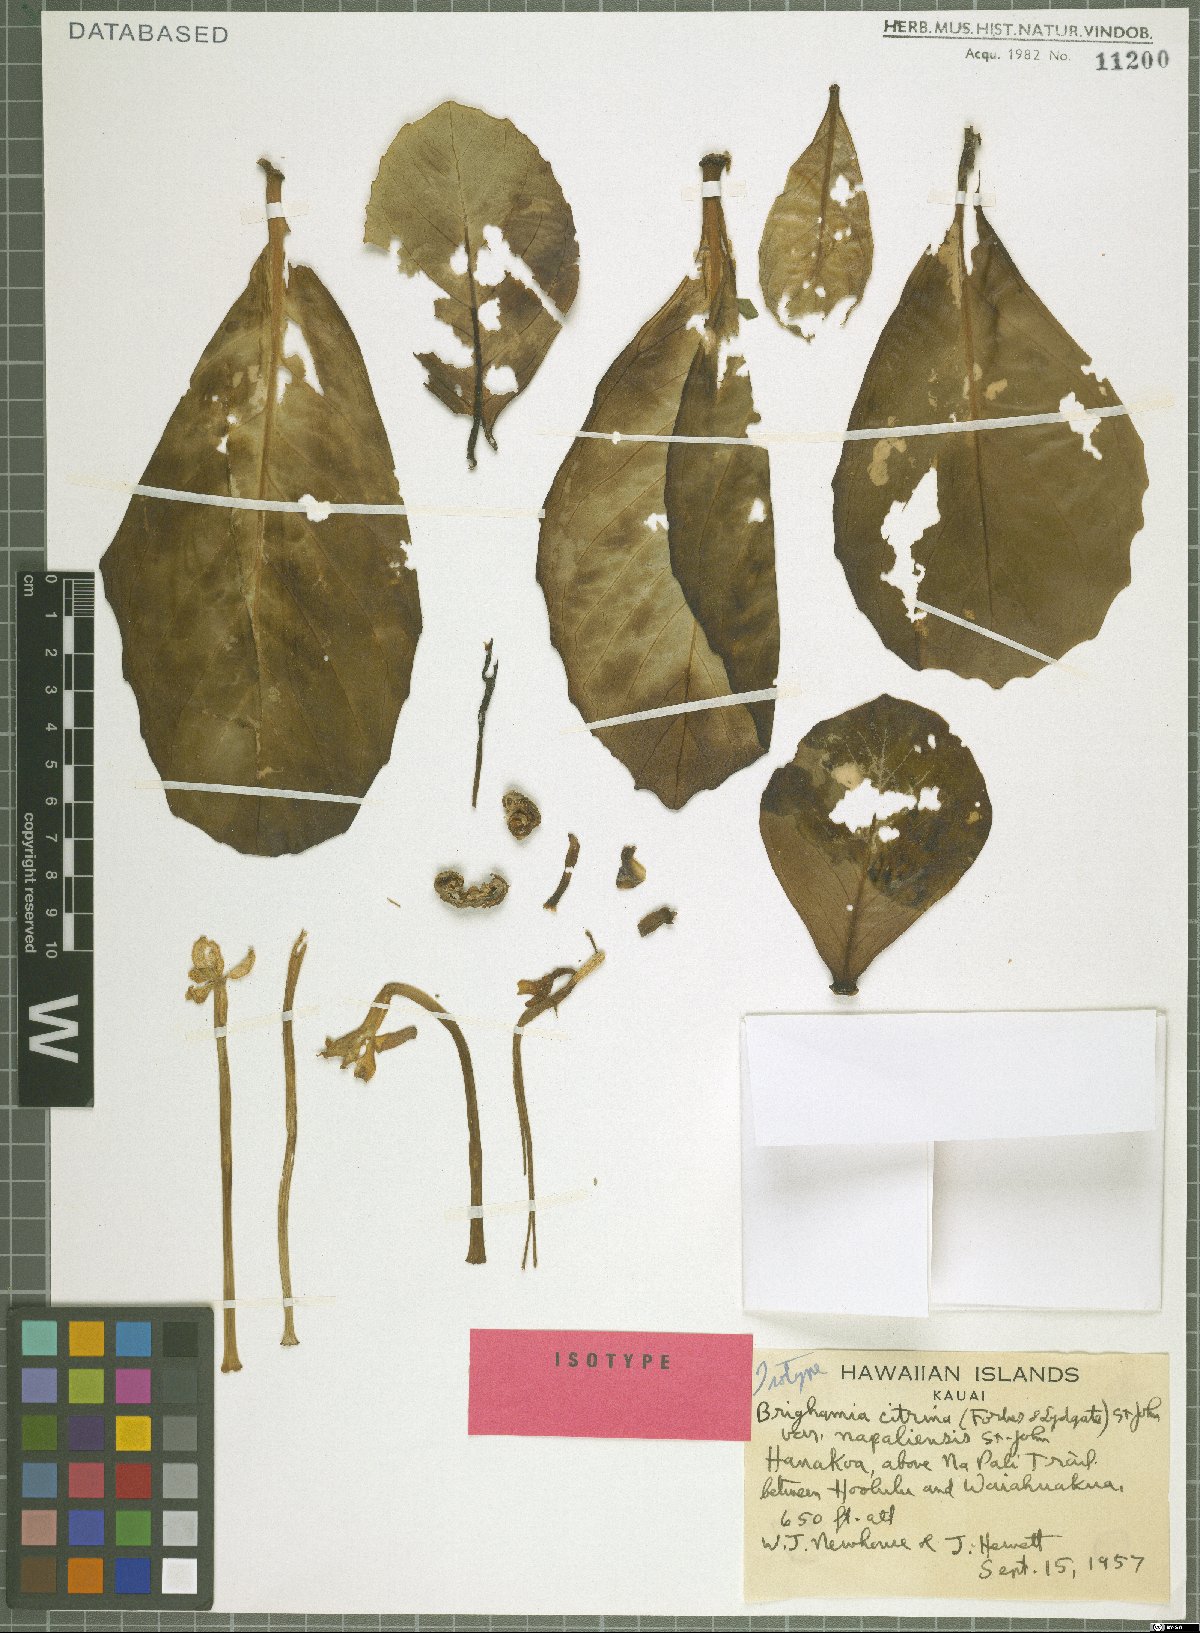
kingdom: Plantae
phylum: Tracheophyta
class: Magnoliopsida
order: Asterales
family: Campanulaceae
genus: Brighamia
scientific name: Brighamia insignis
